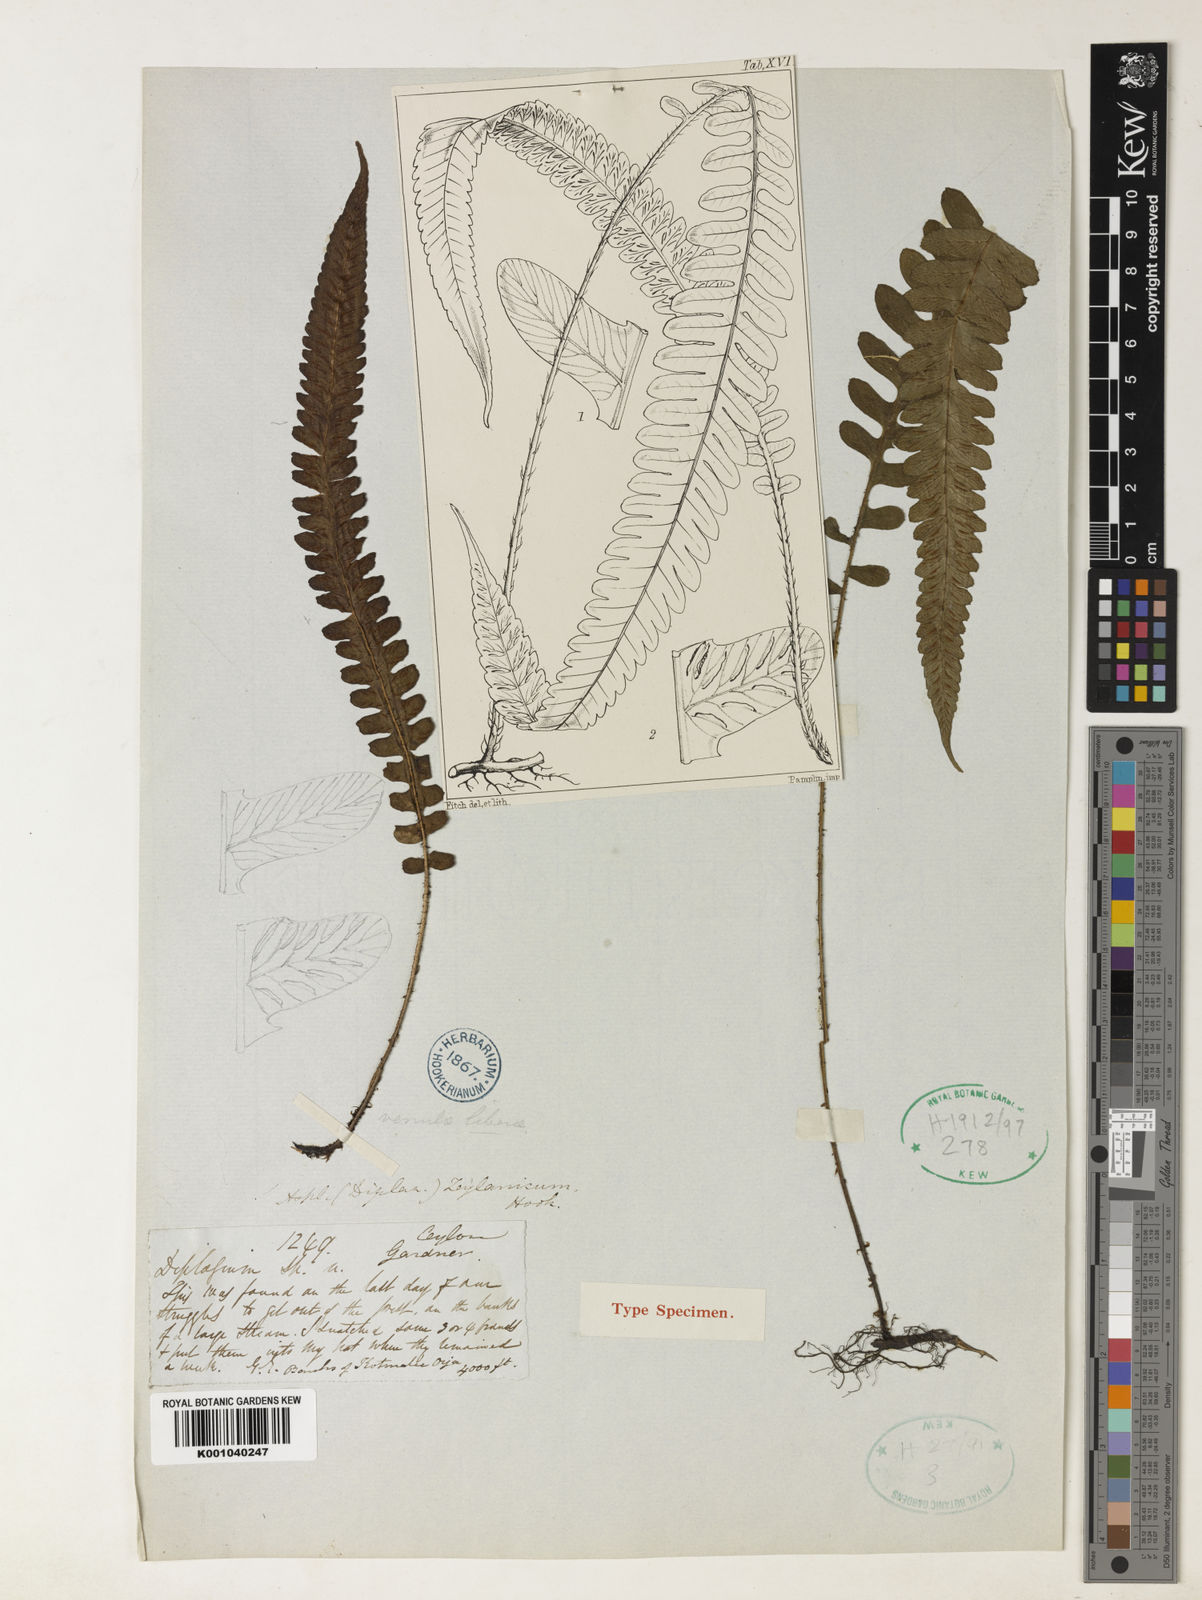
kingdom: Plantae
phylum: Tracheophyta
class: Polypodiopsida
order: Polypodiales
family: Athyriaceae
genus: Deparia
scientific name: Deparia zeylanica
